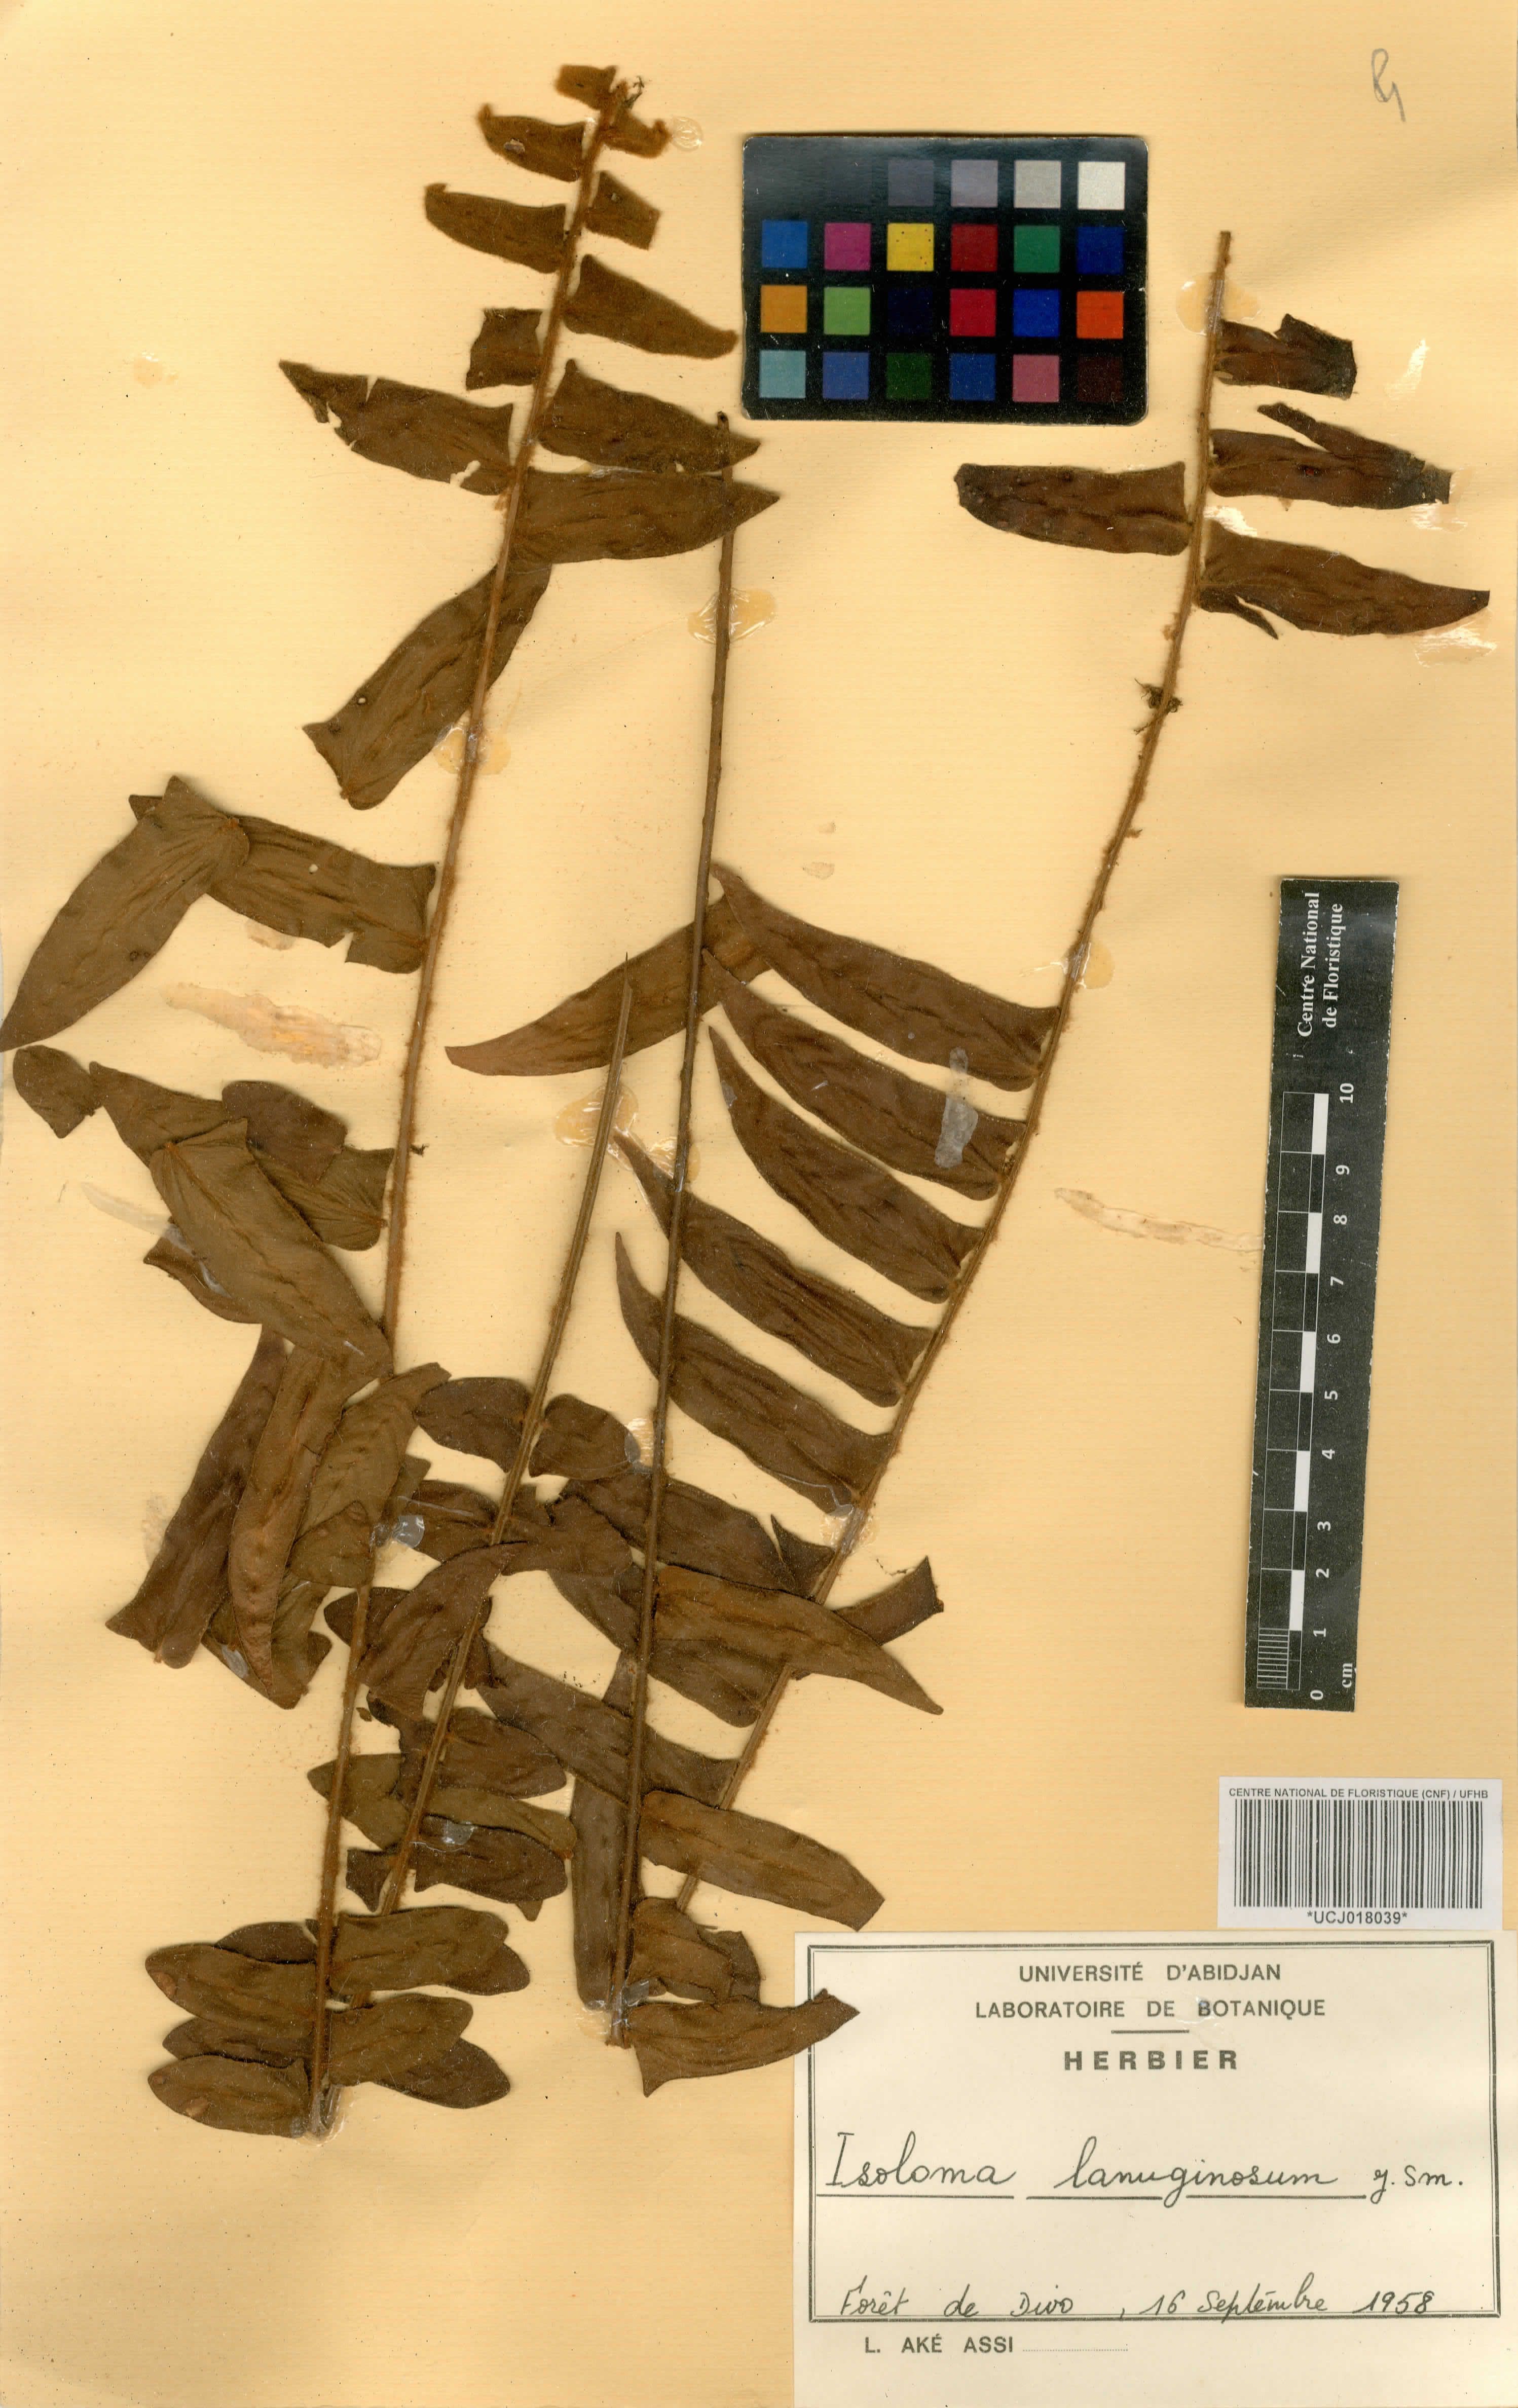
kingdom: Plantae
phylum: Tracheophyta
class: Polypodiopsida
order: Polypodiales
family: Nephrolepidaceae
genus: Nephrolepis
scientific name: Nephrolepis acutifolia
